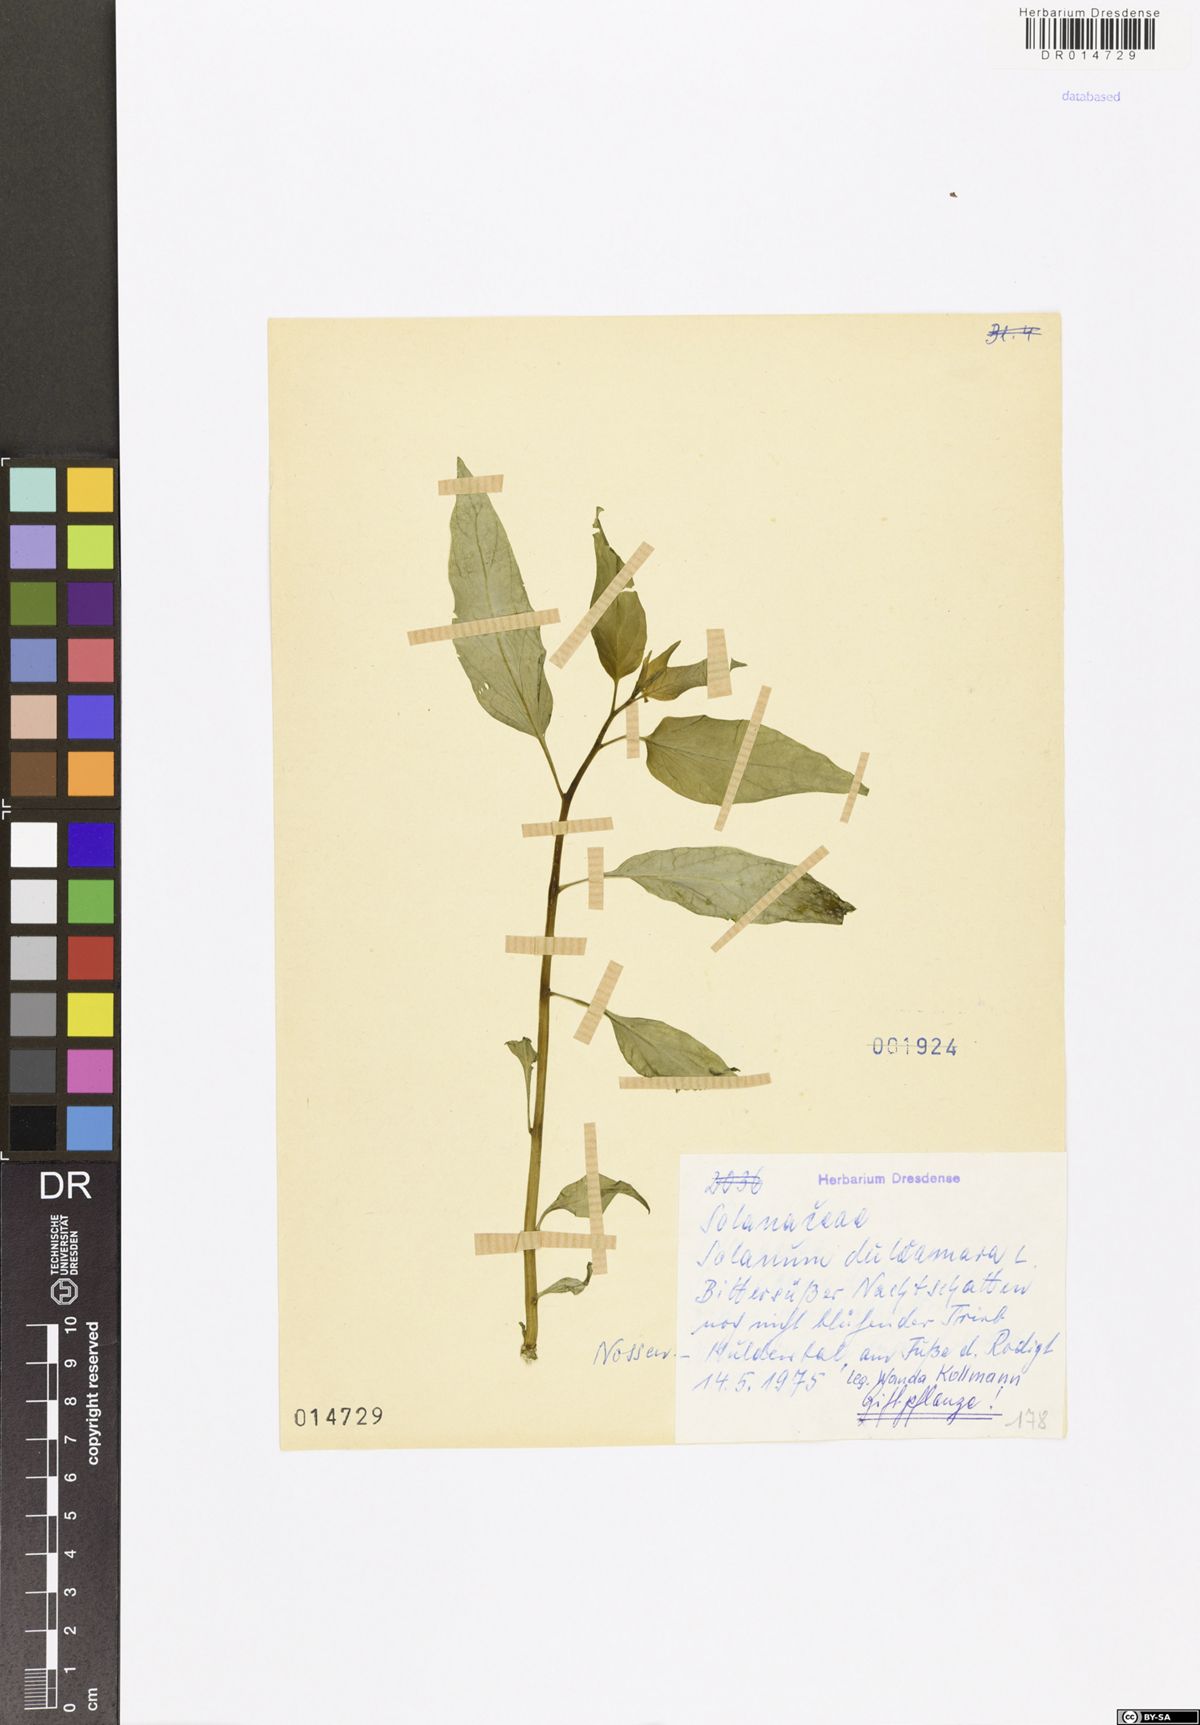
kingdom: Plantae
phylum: Tracheophyta
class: Magnoliopsida
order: Solanales
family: Solanaceae
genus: Solanum
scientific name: Solanum dulcamara
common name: Climbing nightshade
